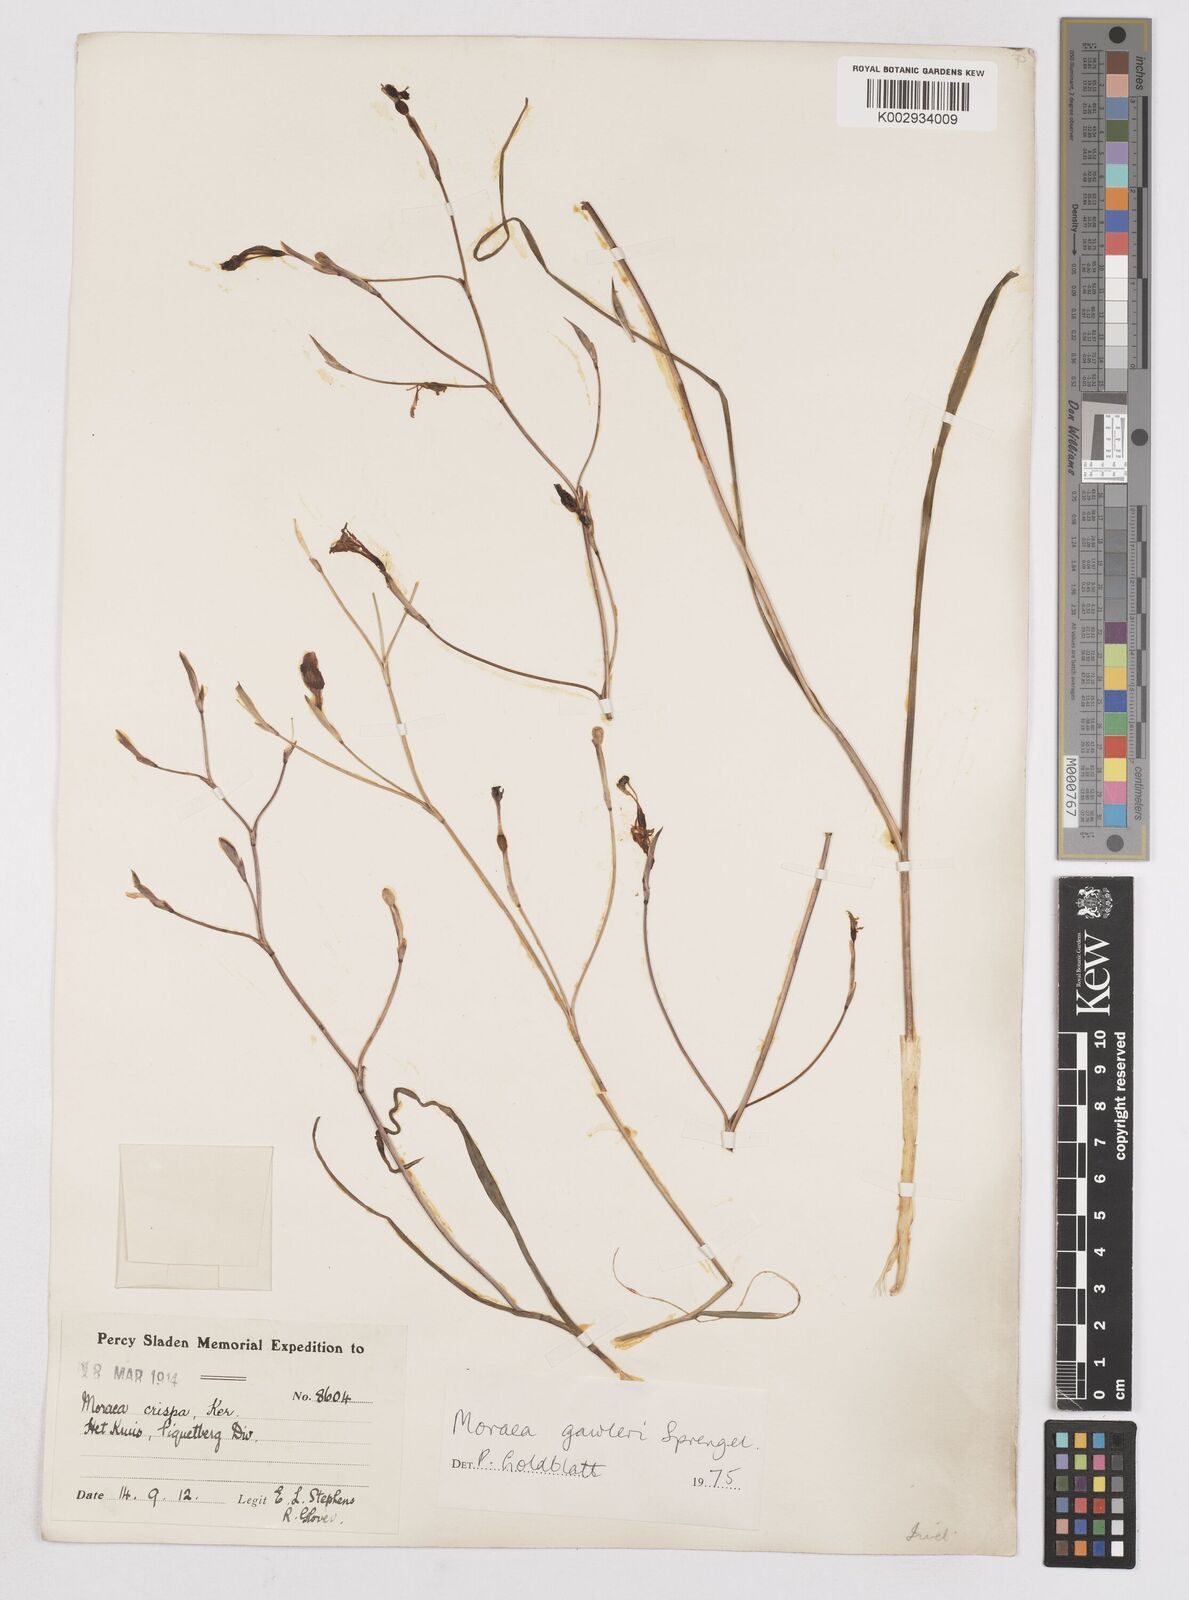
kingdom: Plantae
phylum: Tracheophyta
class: Liliopsida
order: Asparagales
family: Iridaceae
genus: Moraea
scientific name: Moraea gawleri
